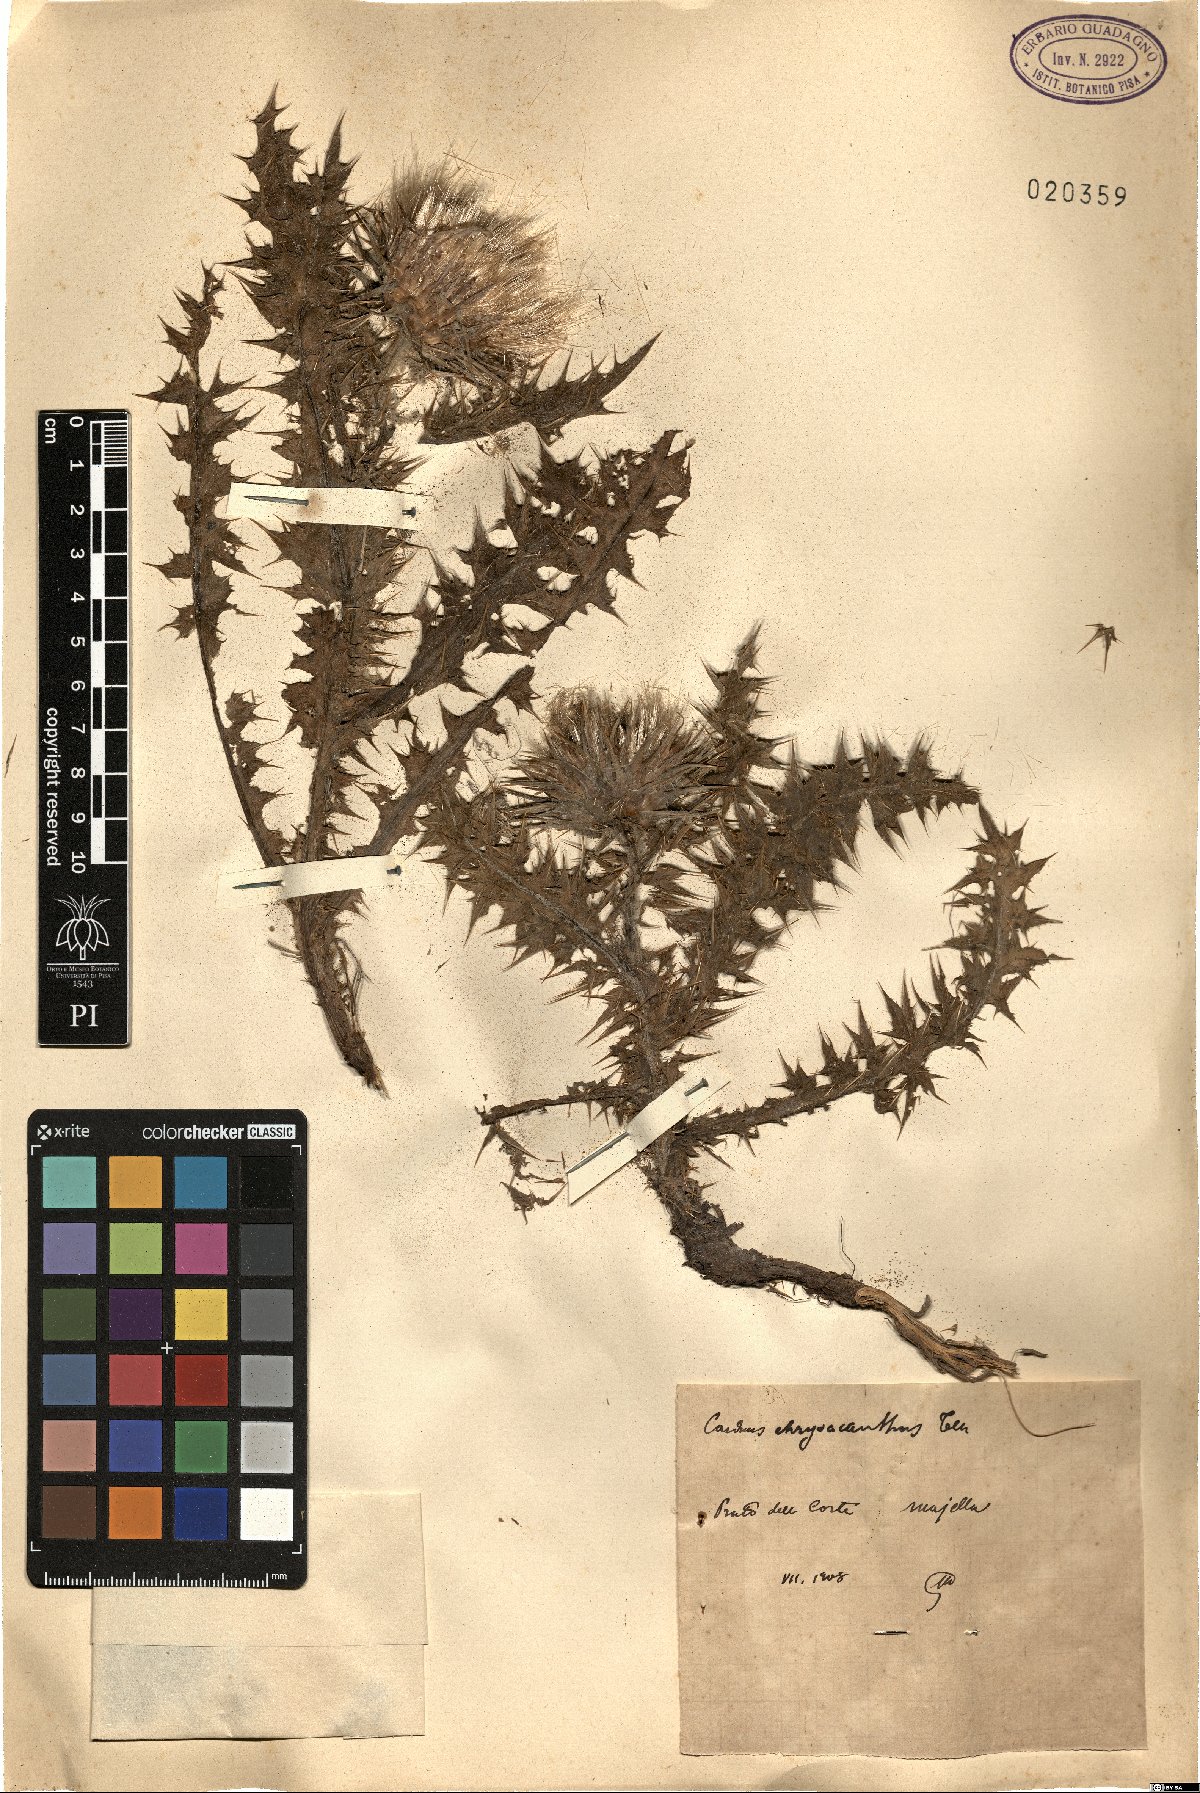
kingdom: Plantae
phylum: Tracheophyta
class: Magnoliopsida
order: Asterales
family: Asteraceae
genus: Carduus
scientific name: Carduus chrysacanthus
